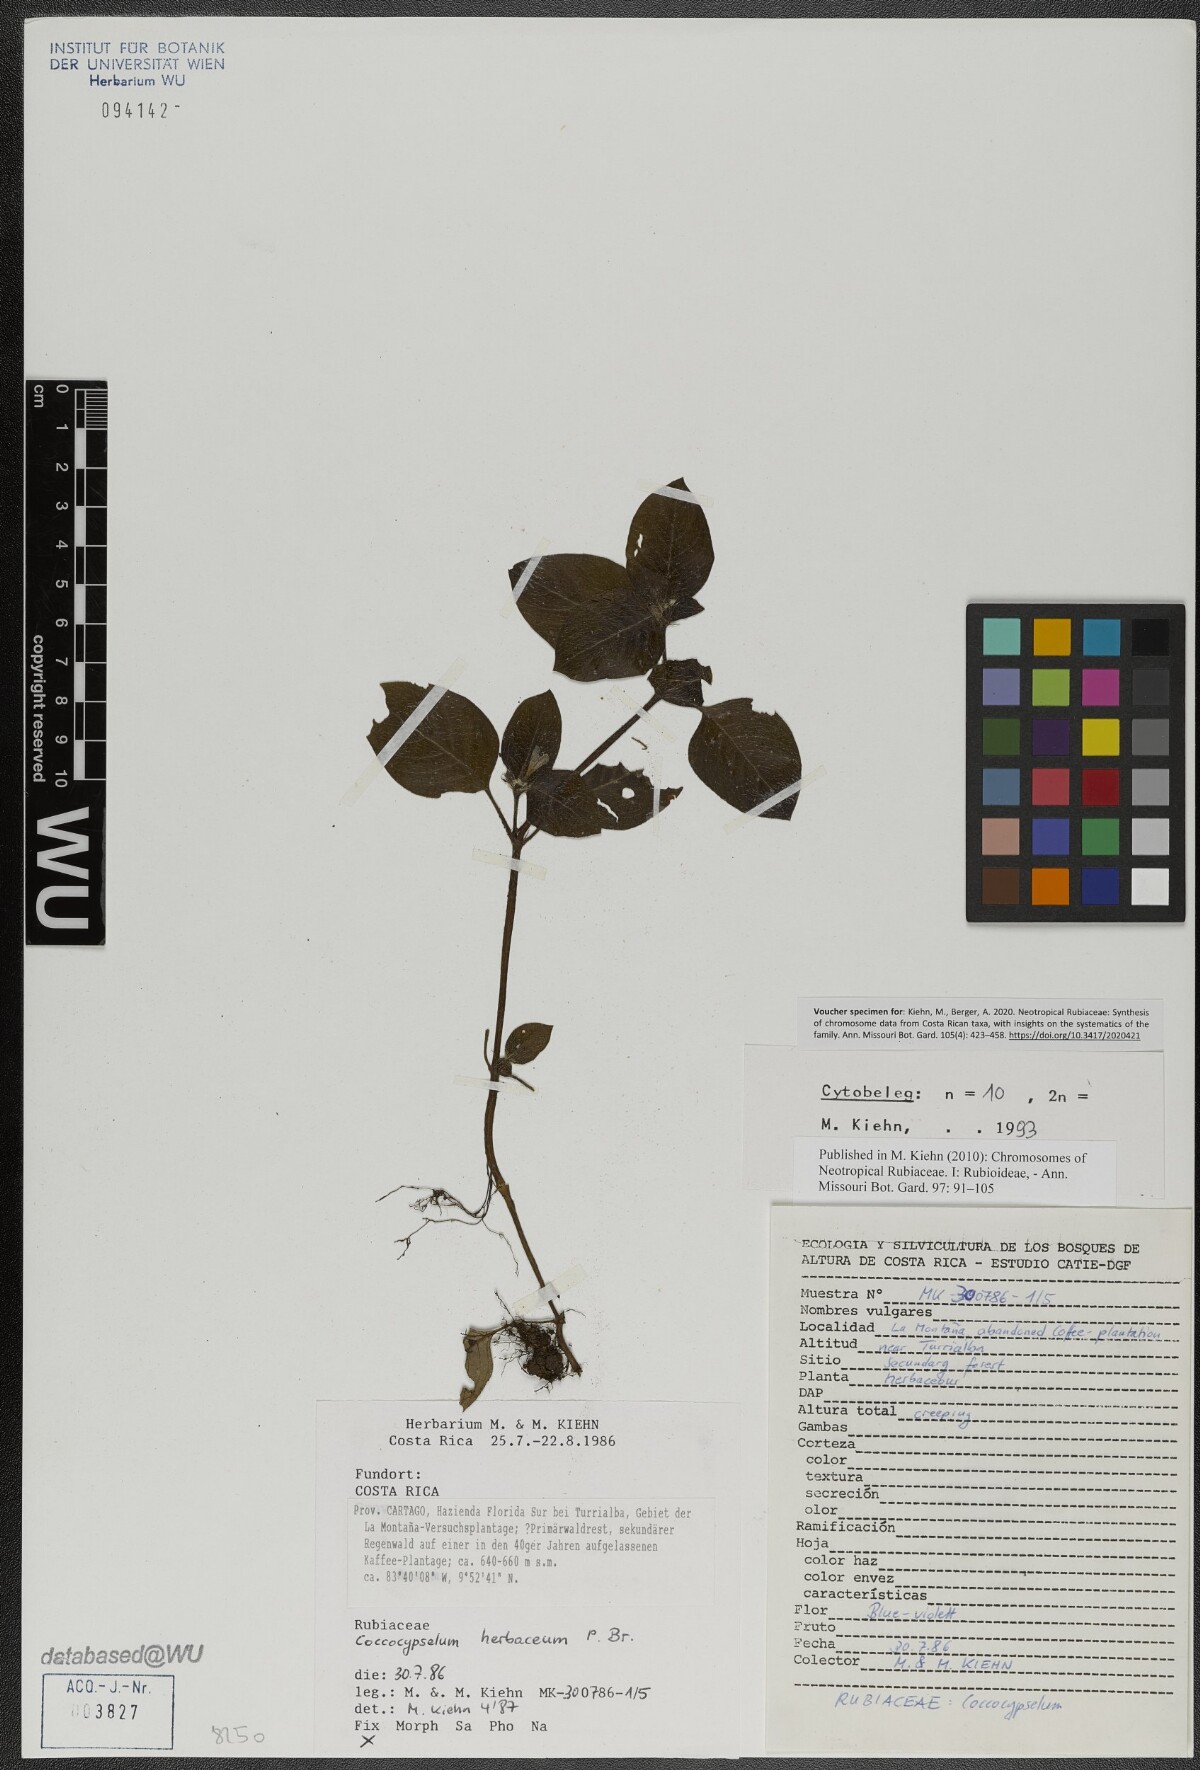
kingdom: Plantae
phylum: Tracheophyta
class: Magnoliopsida
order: Gentianales
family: Rubiaceae
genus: Coccocypselum
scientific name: Coccocypselum herbaceum
